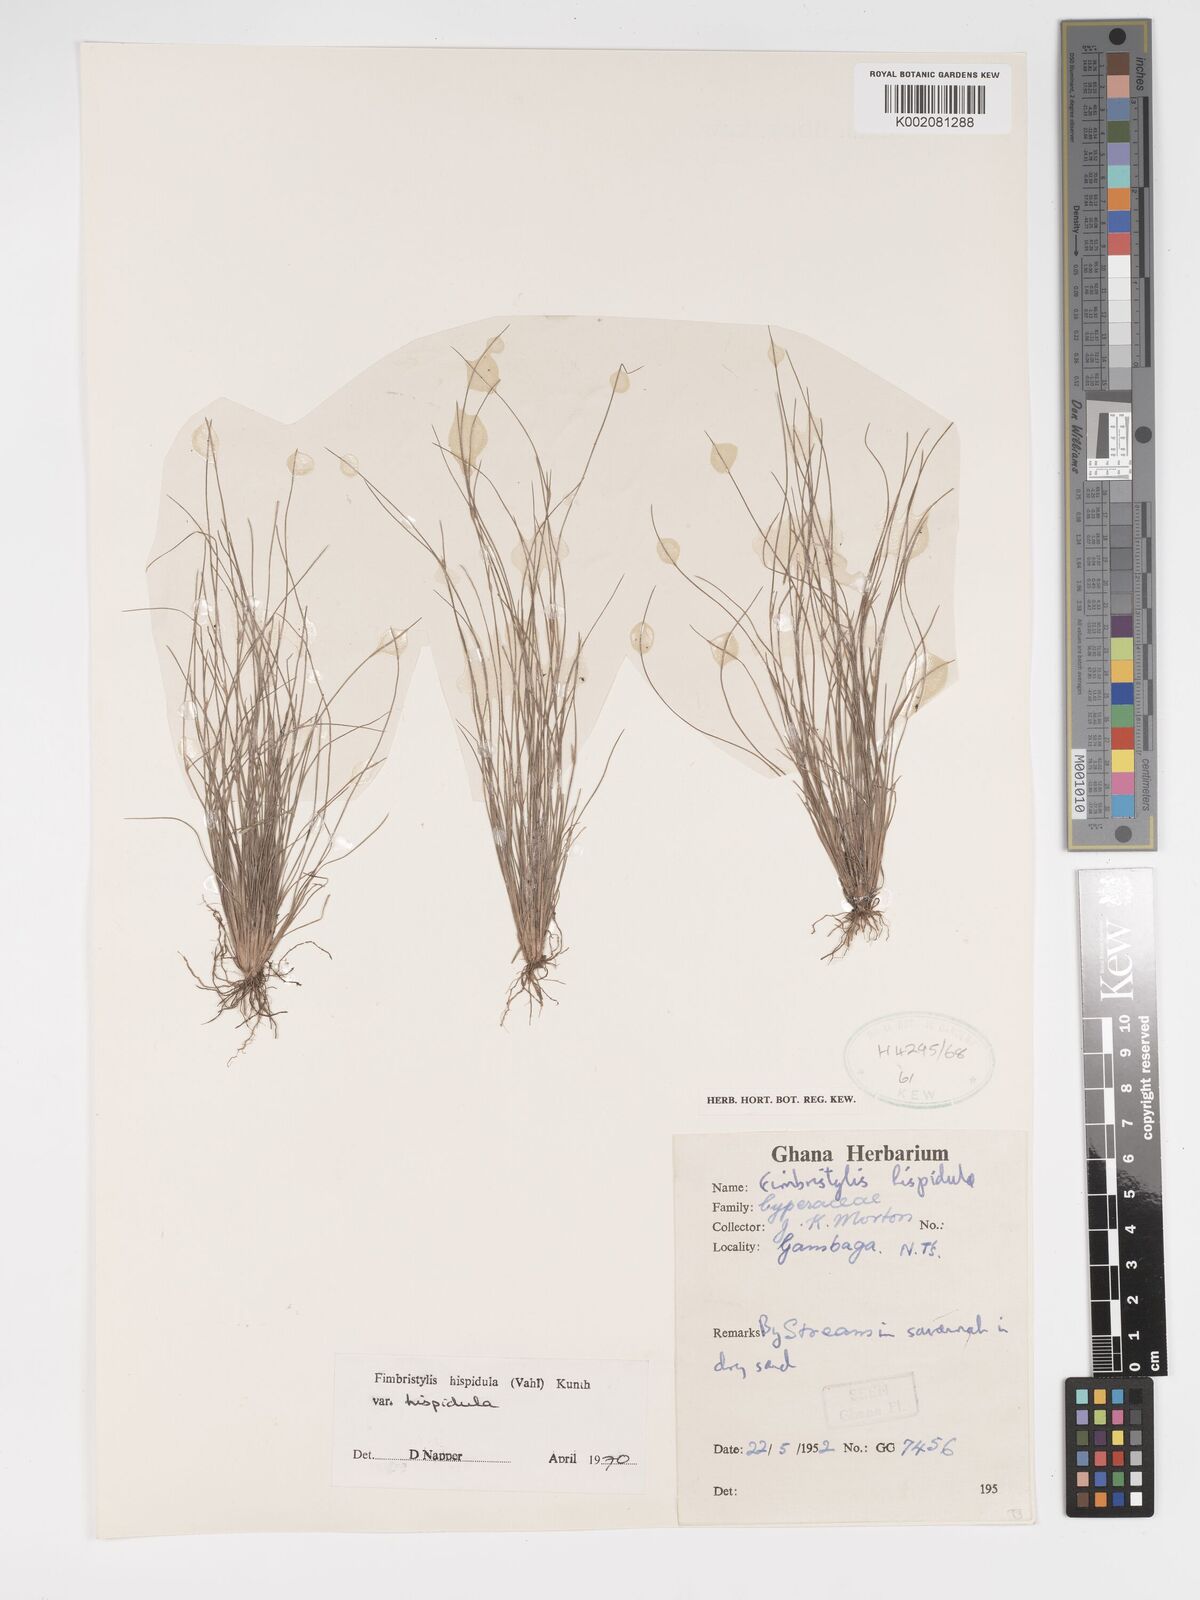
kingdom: Plantae
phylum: Tracheophyta
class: Liliopsida
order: Poales
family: Cyperaceae
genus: Bulbostylis
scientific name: Bulbostylis
